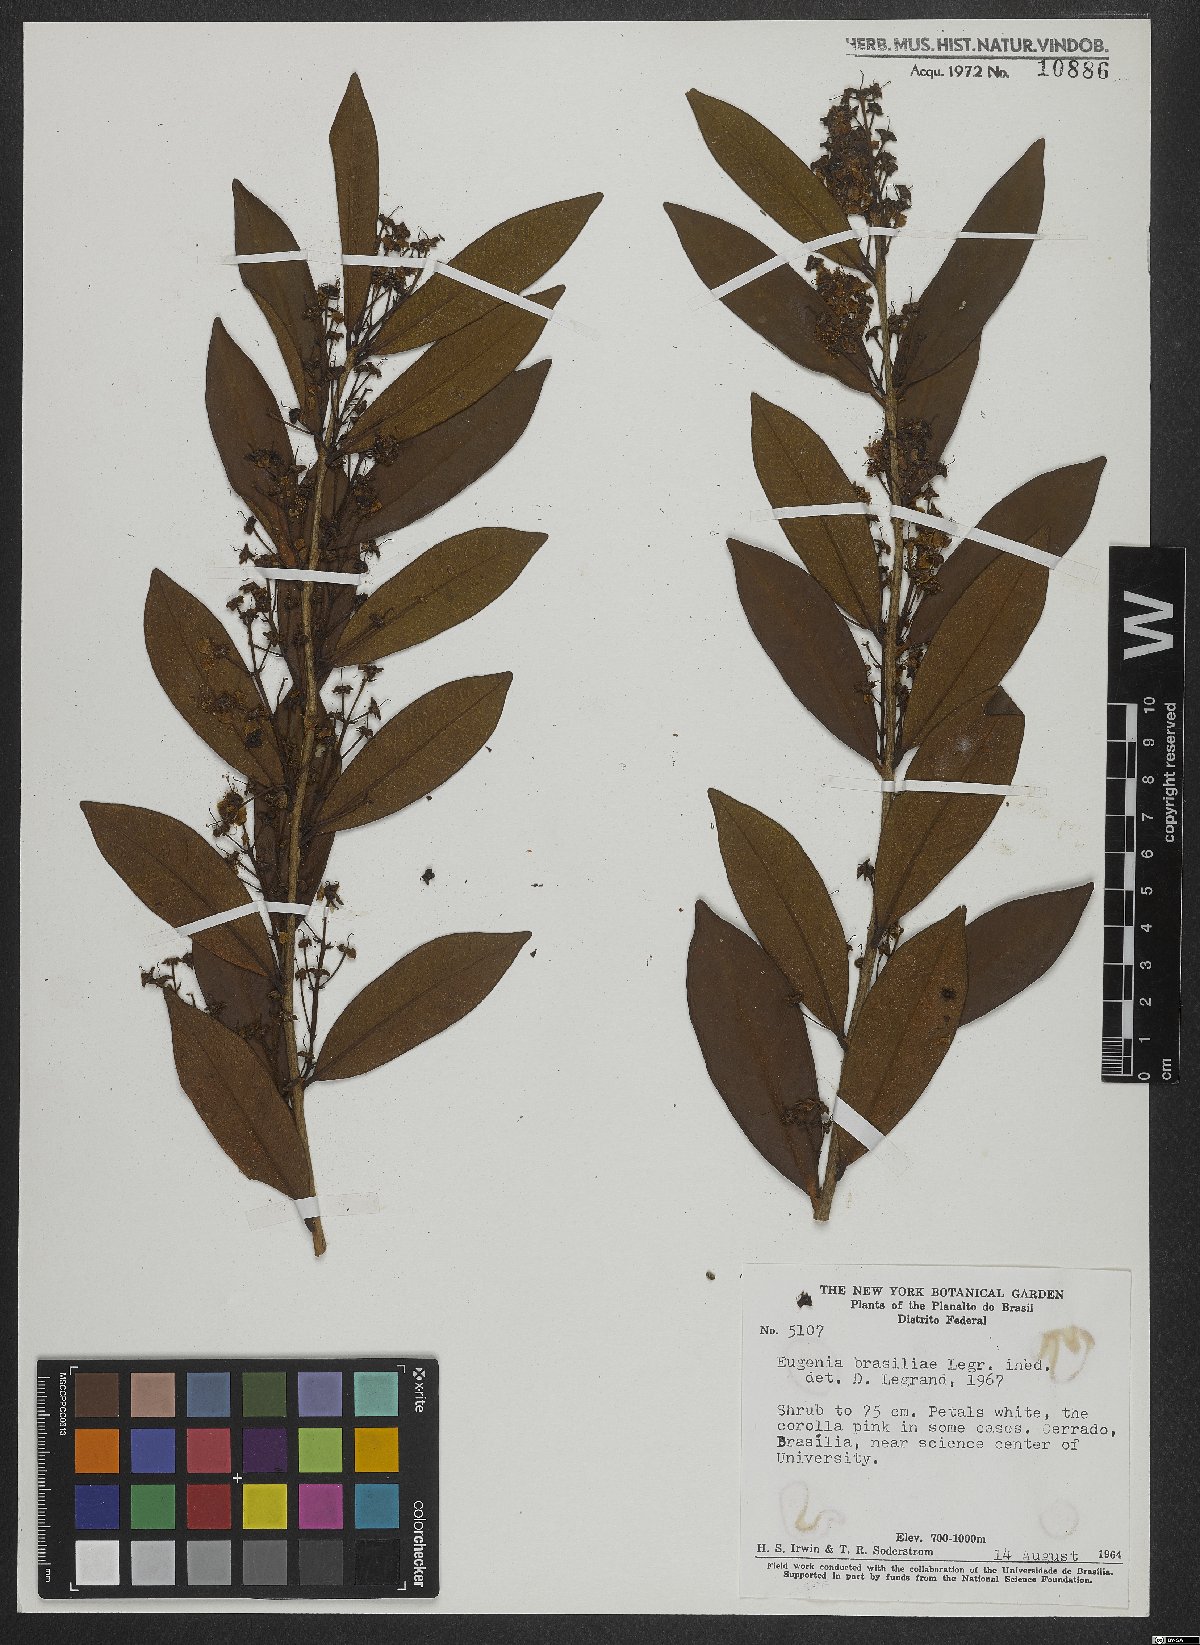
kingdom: Plantae
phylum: Tracheophyta
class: Magnoliopsida
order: Myrtales
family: Myrtaceae
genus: Eugenia
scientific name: Eugenia complicata
